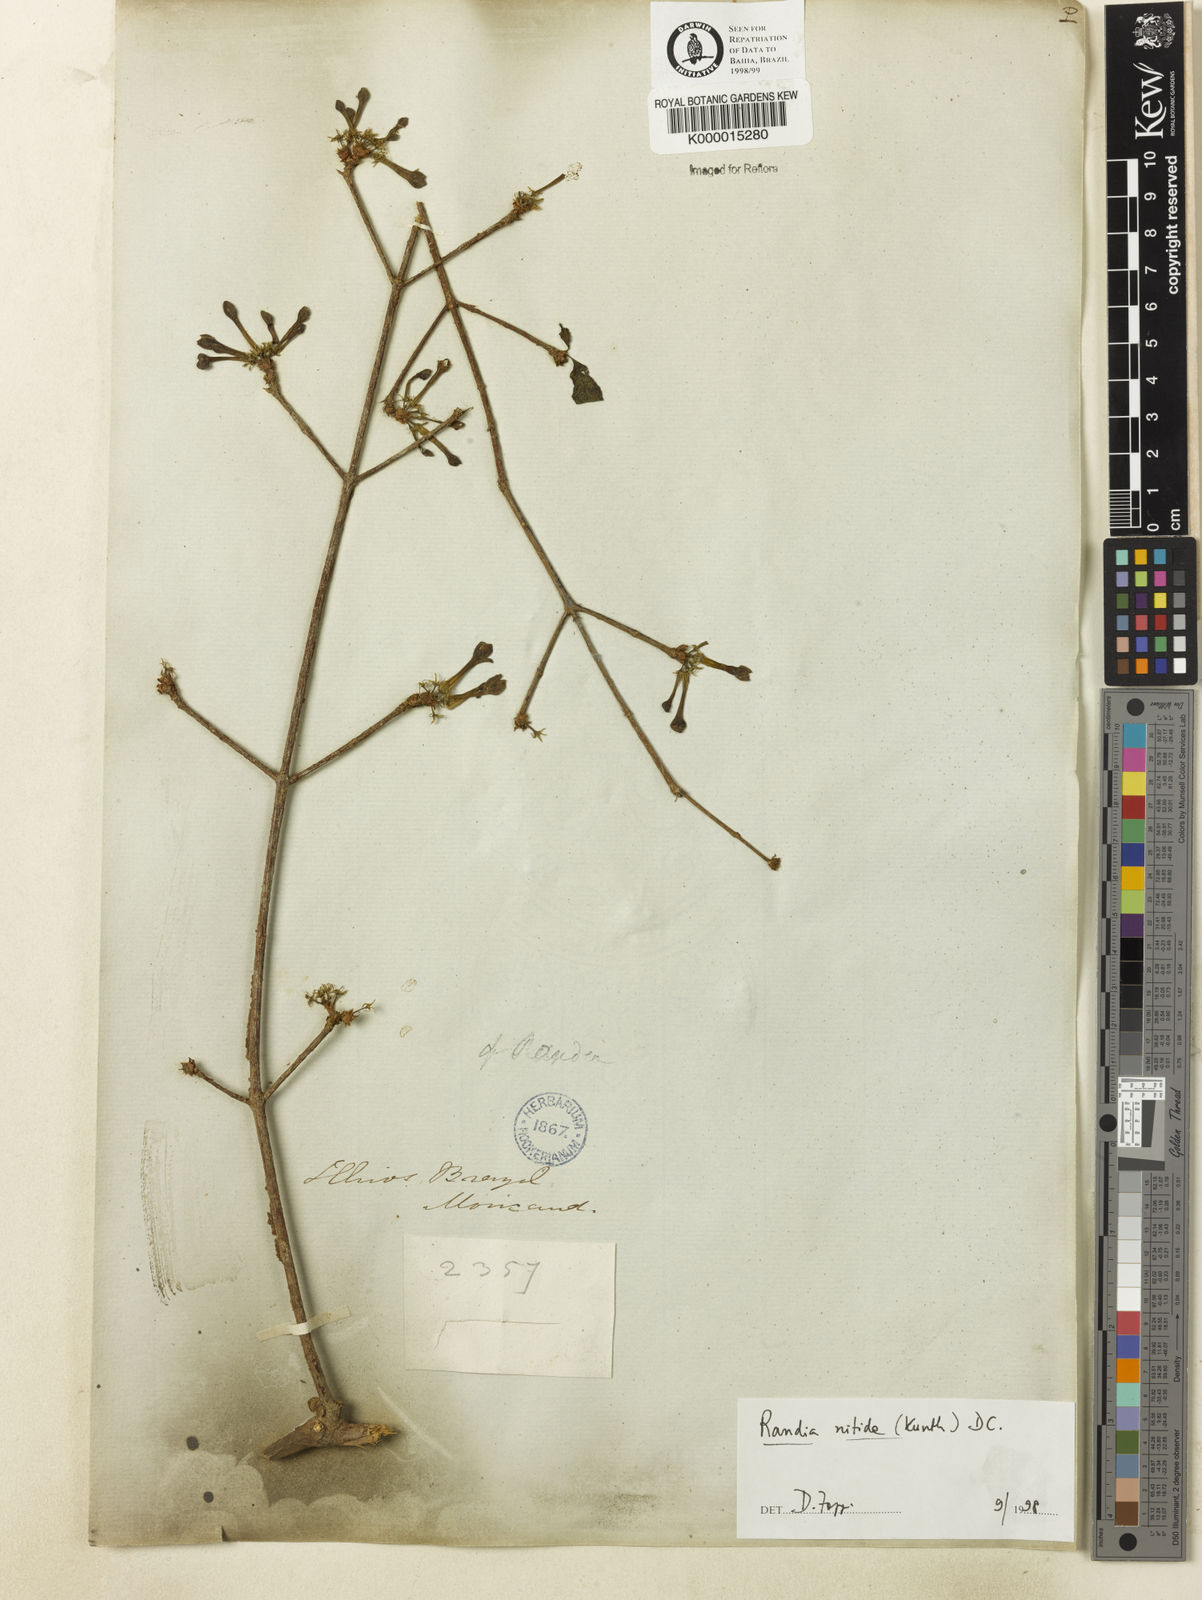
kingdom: Plantae
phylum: Tracheophyta
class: Magnoliopsida
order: Gentianales
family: Rubiaceae
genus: Randia
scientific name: Randia nitida
